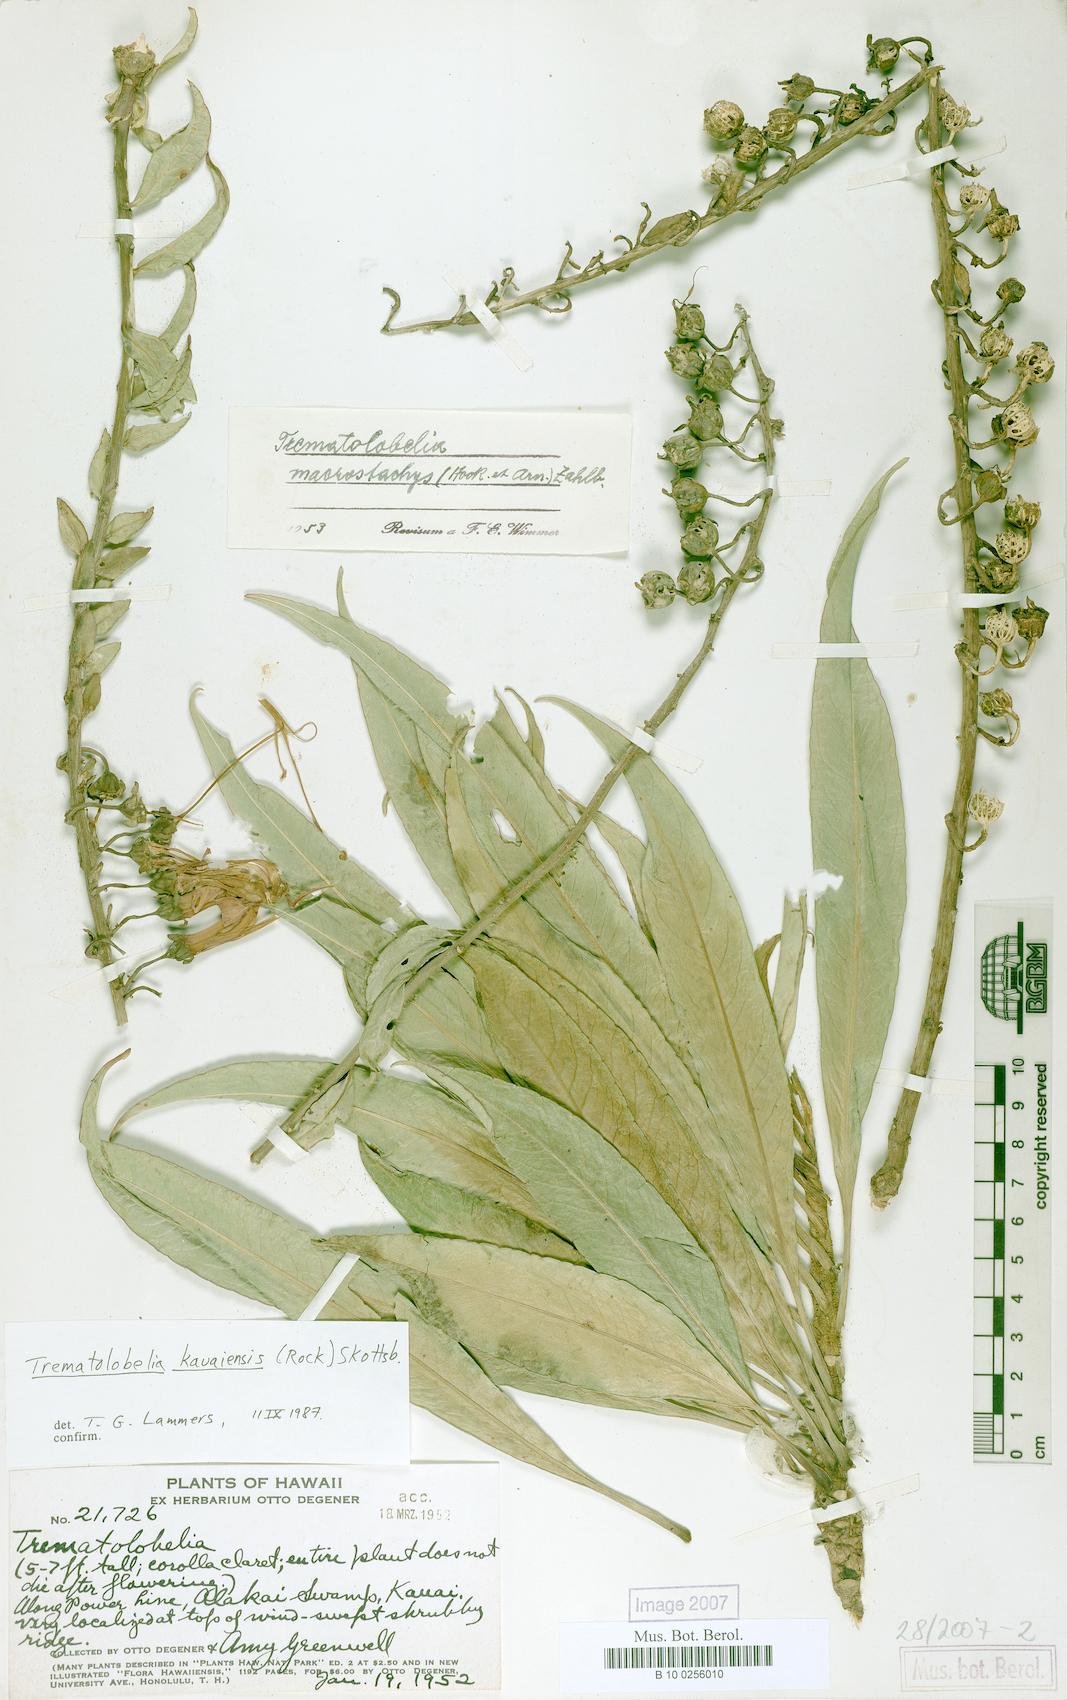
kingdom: Plantae
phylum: Tracheophyta
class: Magnoliopsida
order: Asterales
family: Campanulaceae
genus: Trematolobelia
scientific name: Trematolobelia kauaiensis
